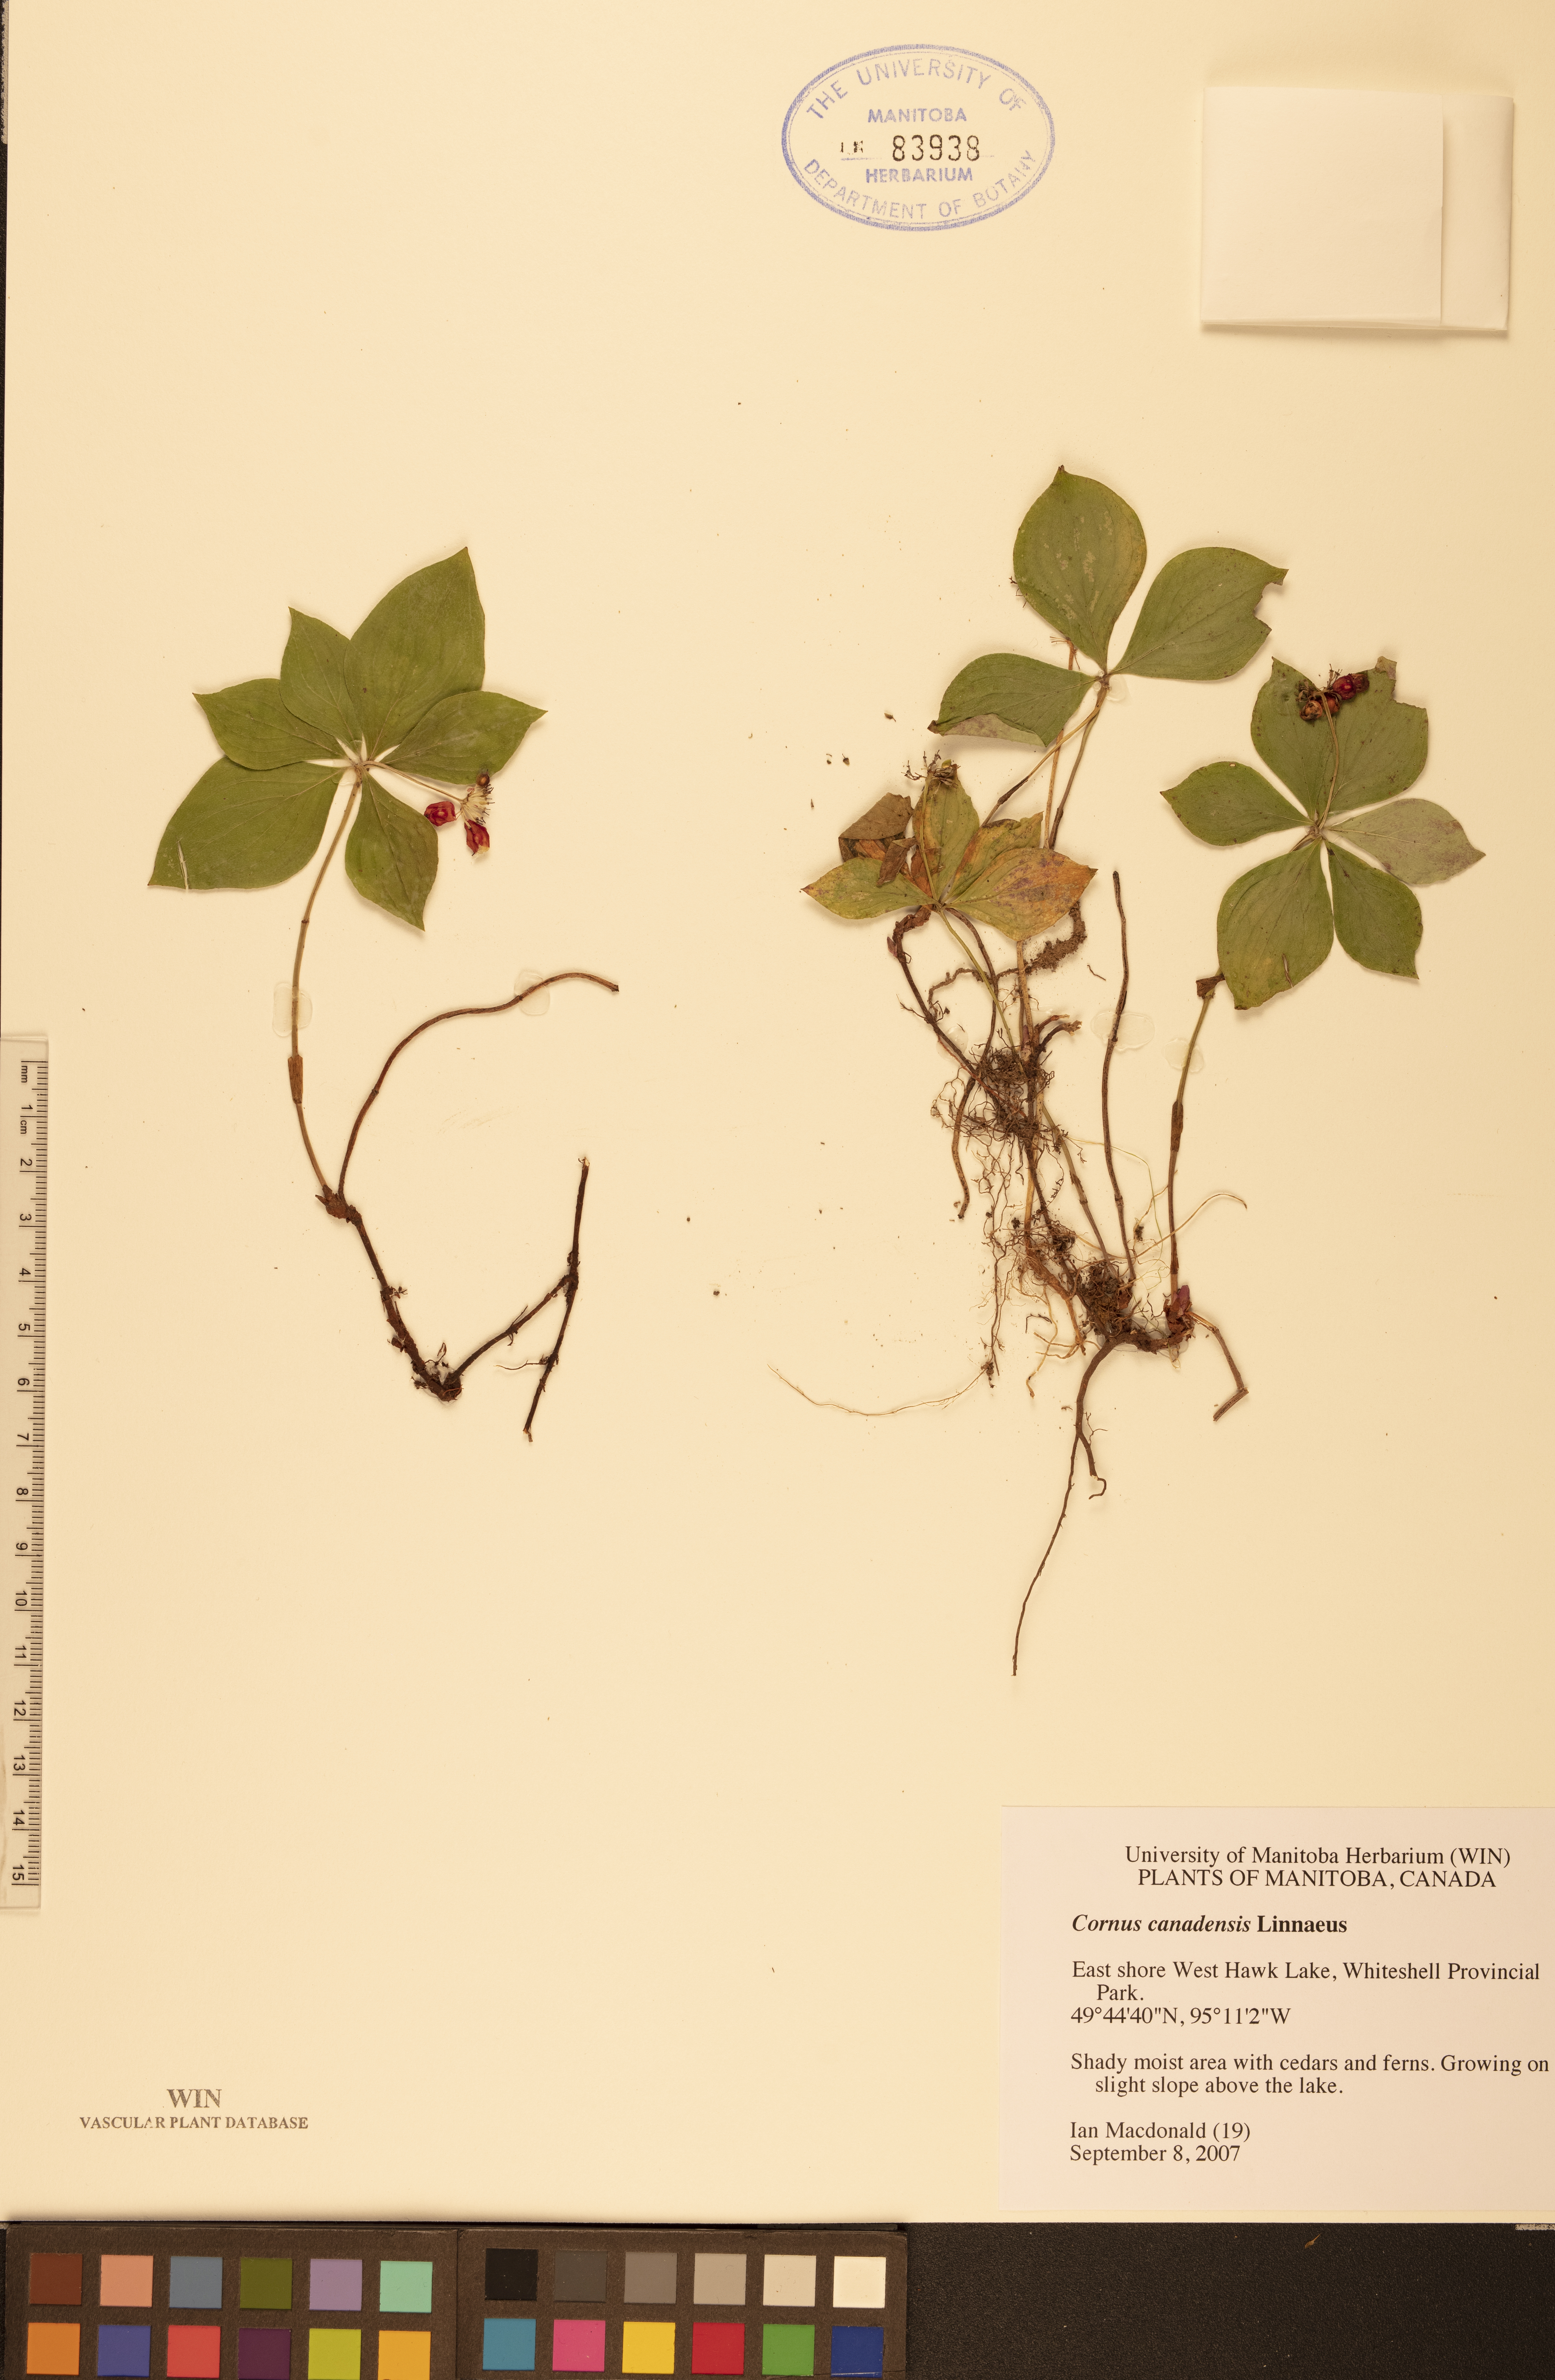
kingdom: Plantae
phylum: Tracheophyta
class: Magnoliopsida
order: Cornales
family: Cornaceae
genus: Cornus
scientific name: Cornus canadensis
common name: Creeping dogwood
